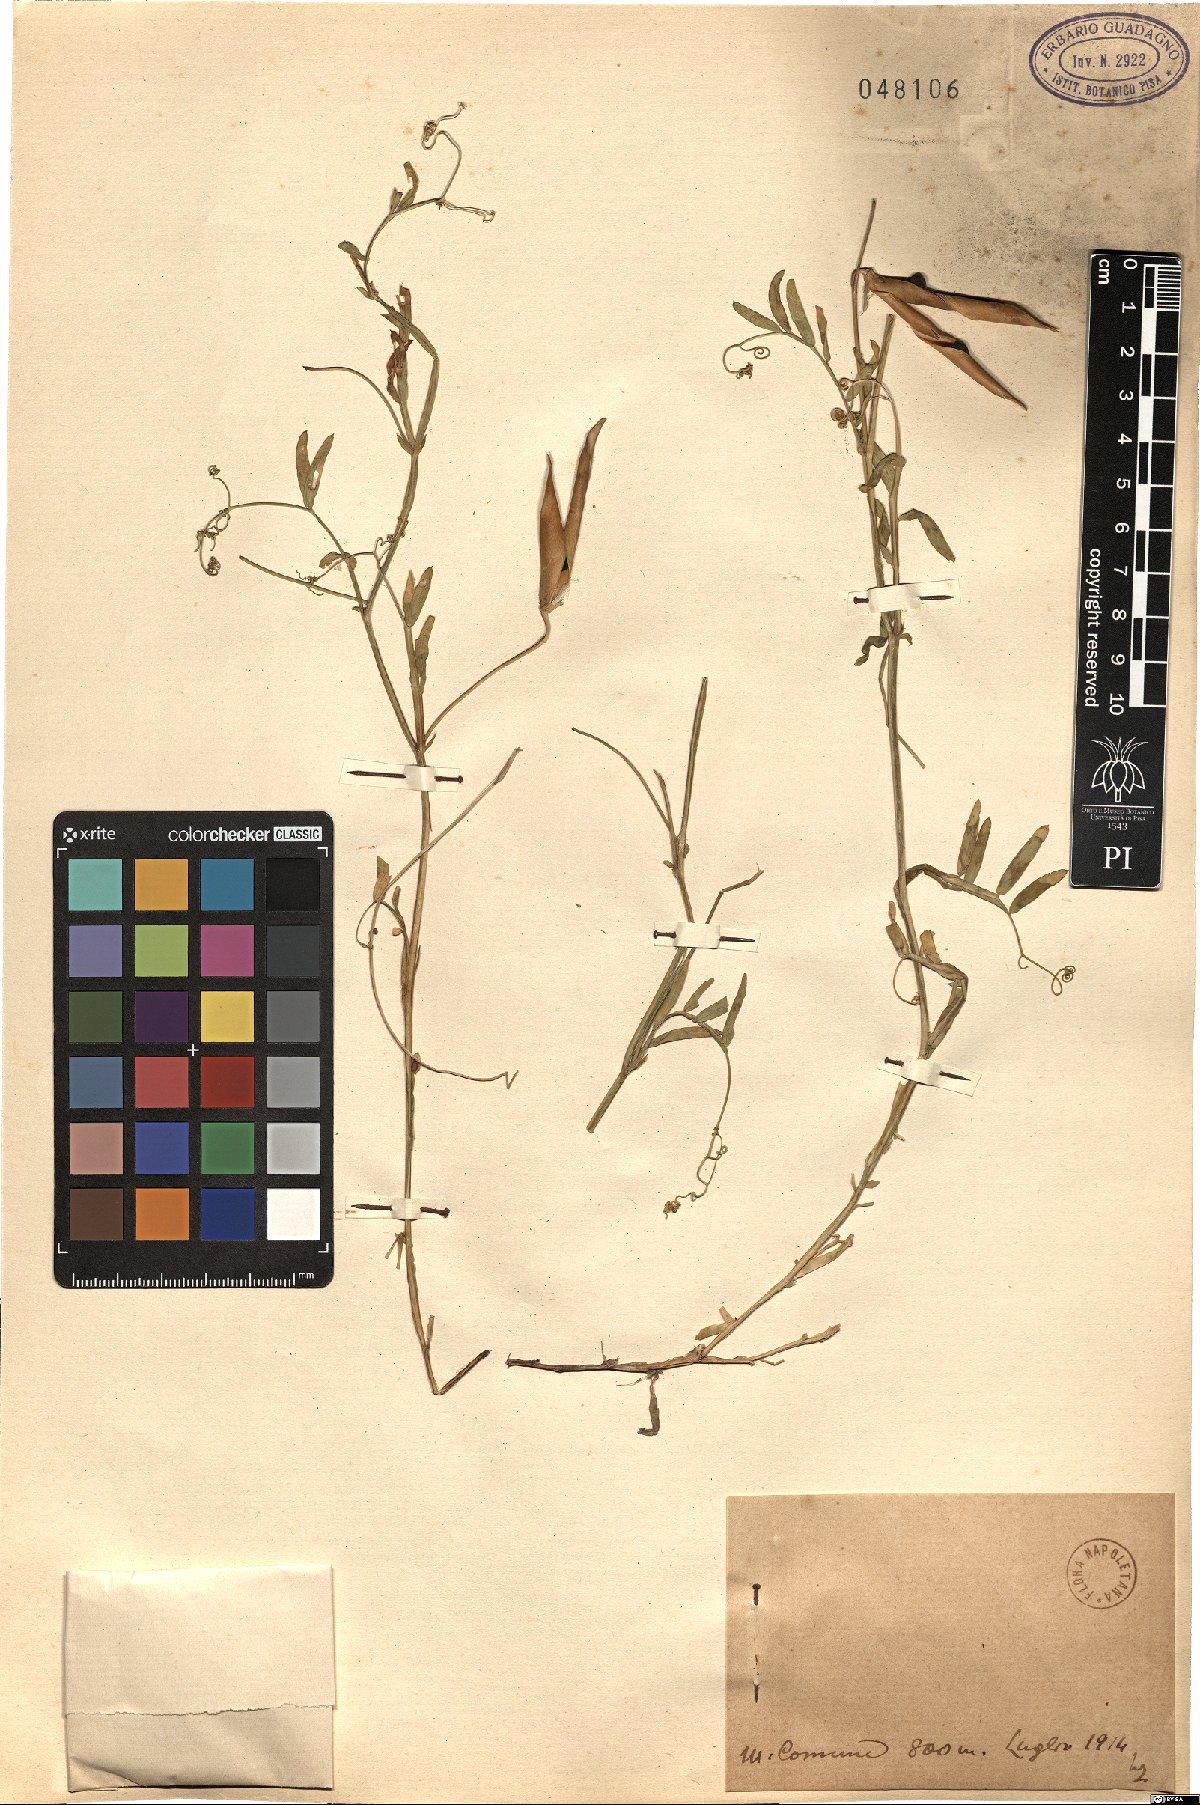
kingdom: Plantae
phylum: Tracheophyta
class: Magnoliopsida
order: Fabales
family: Fabaceae
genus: Vicia
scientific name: Vicia
